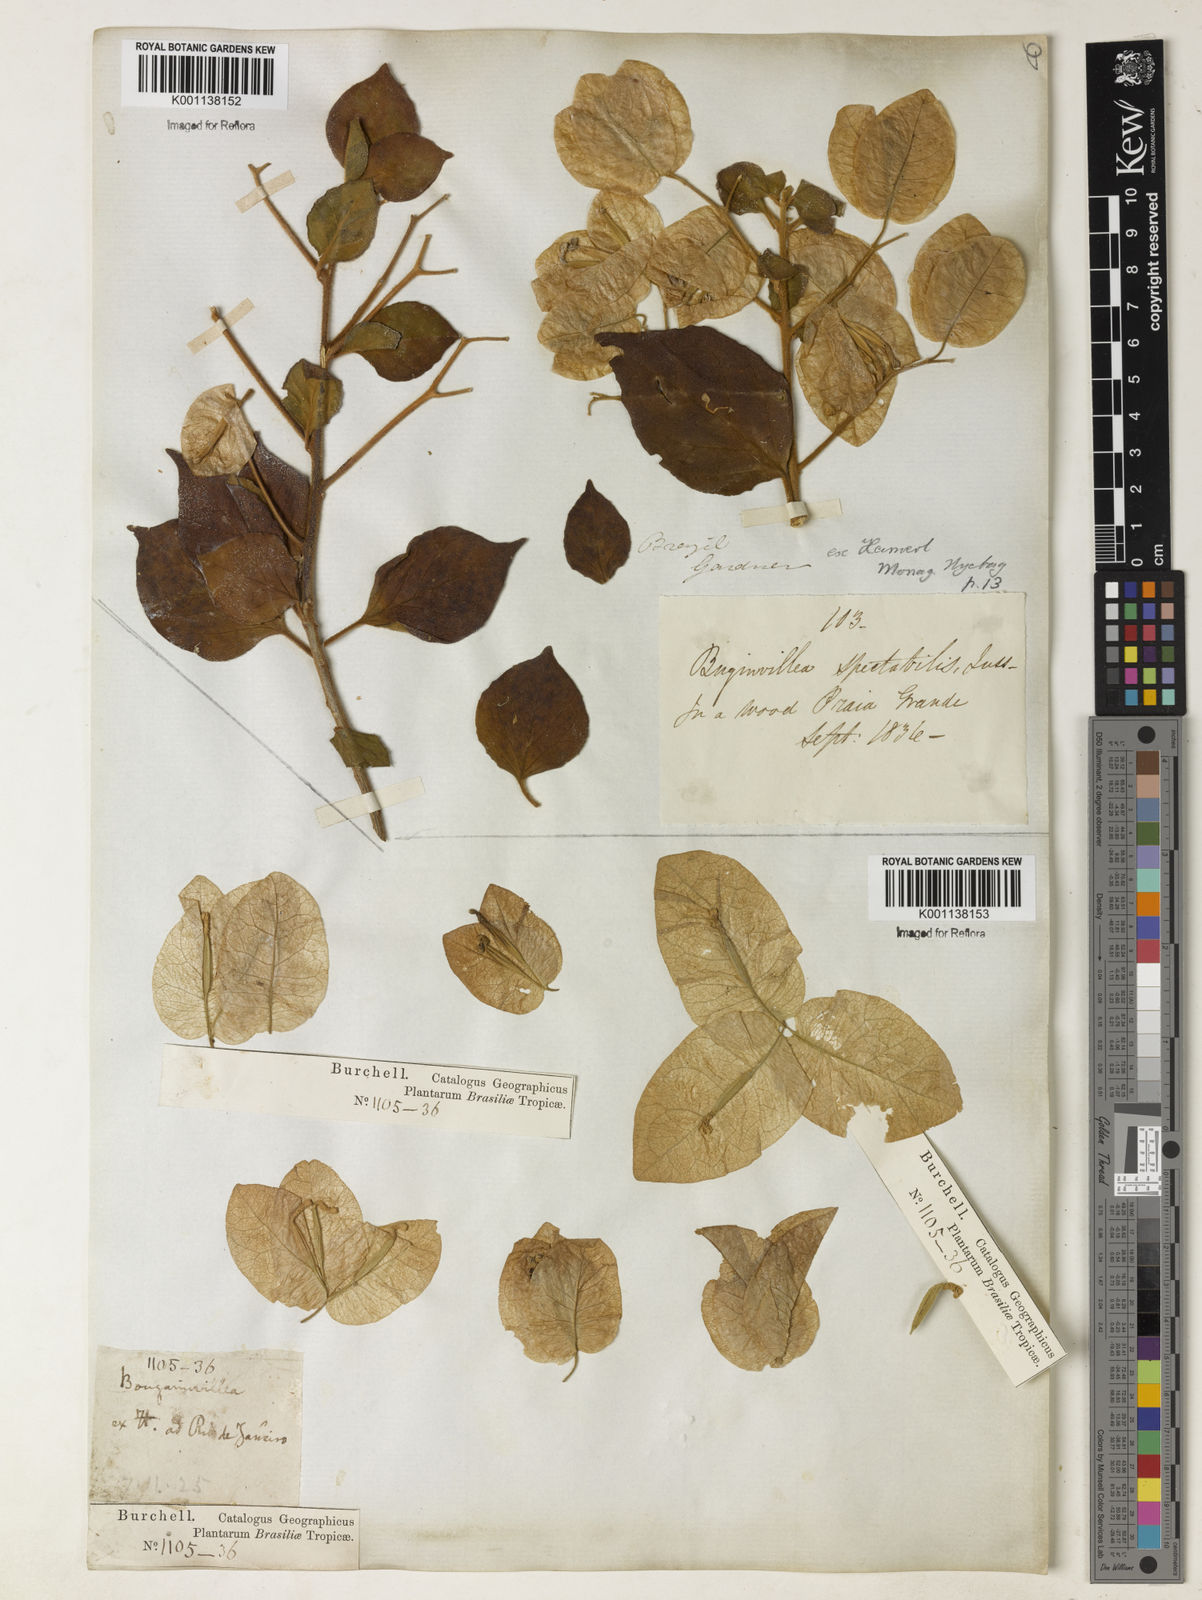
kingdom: Plantae
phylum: Tracheophyta
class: Magnoliopsida
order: Caryophyllales
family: Nyctaginaceae
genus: Bougainvillea
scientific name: Bougainvillea spectabilis
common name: Great bougainvillea
